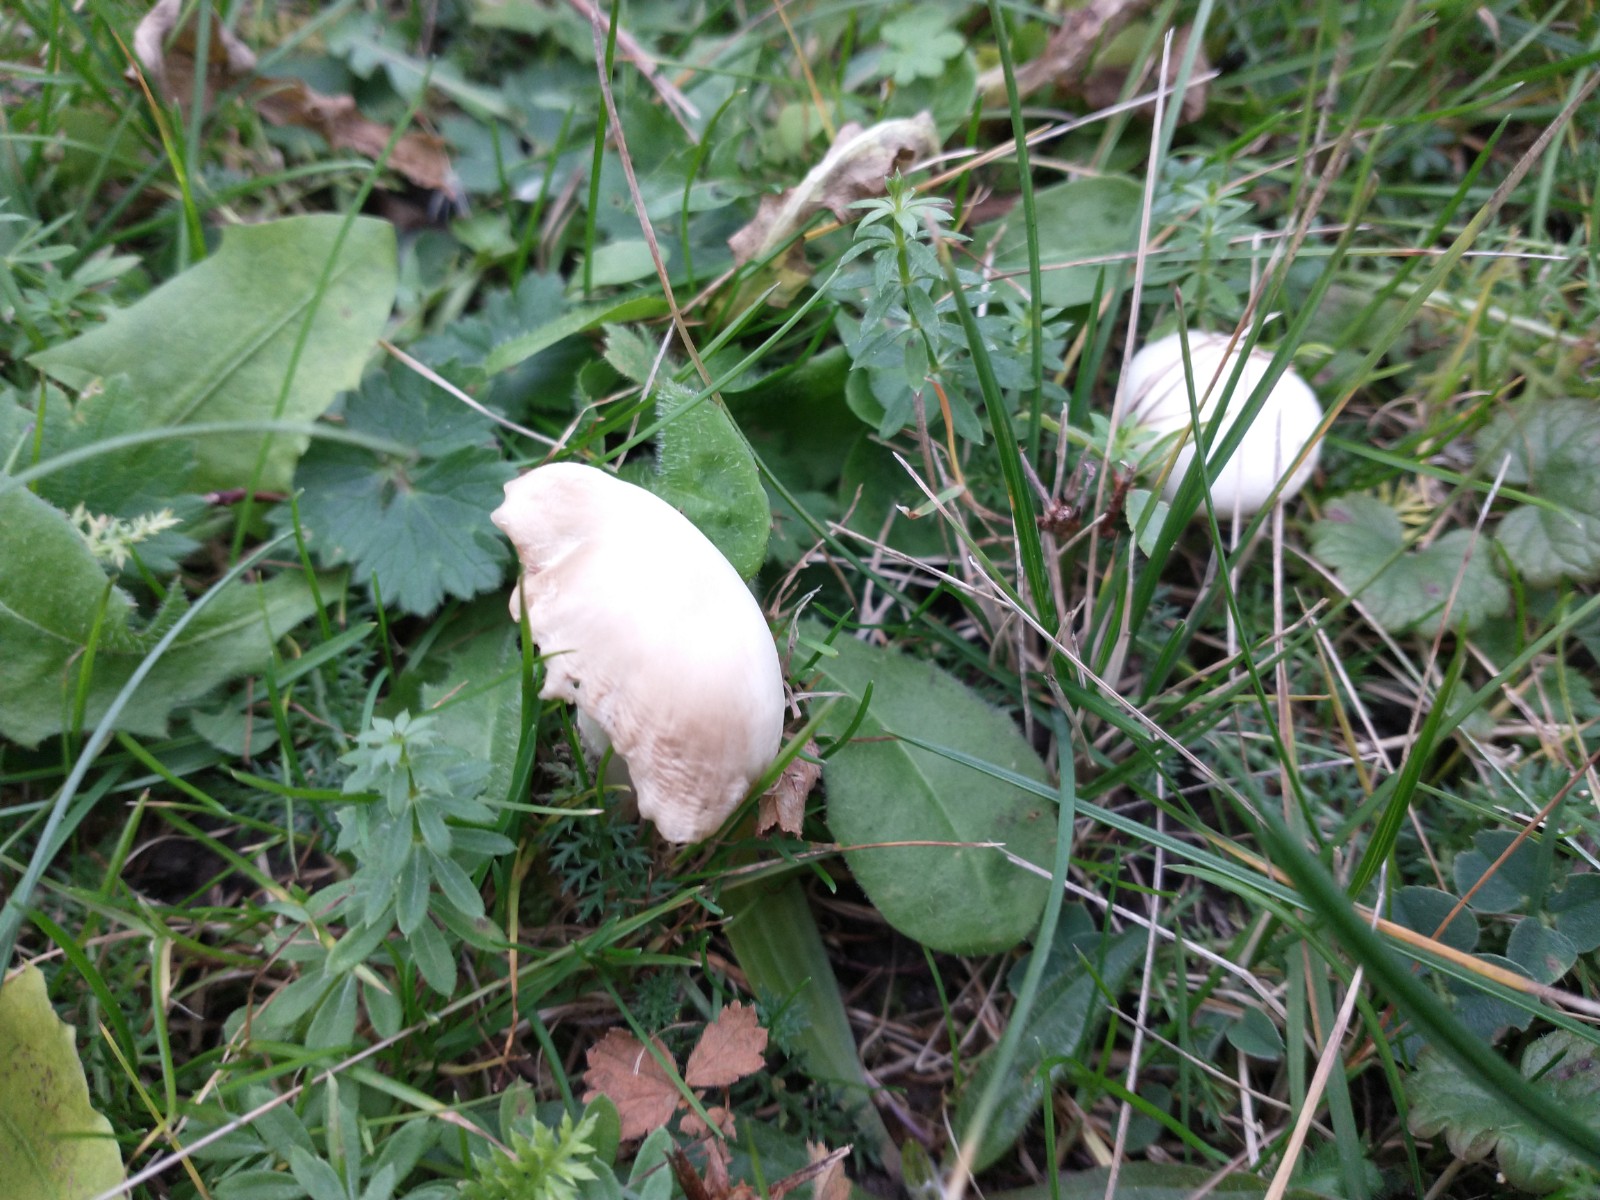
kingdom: Fungi
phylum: Basidiomycota
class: Agaricomycetes
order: Agaricales
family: Hygrophoraceae
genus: Cuphophyllus
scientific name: Cuphophyllus
